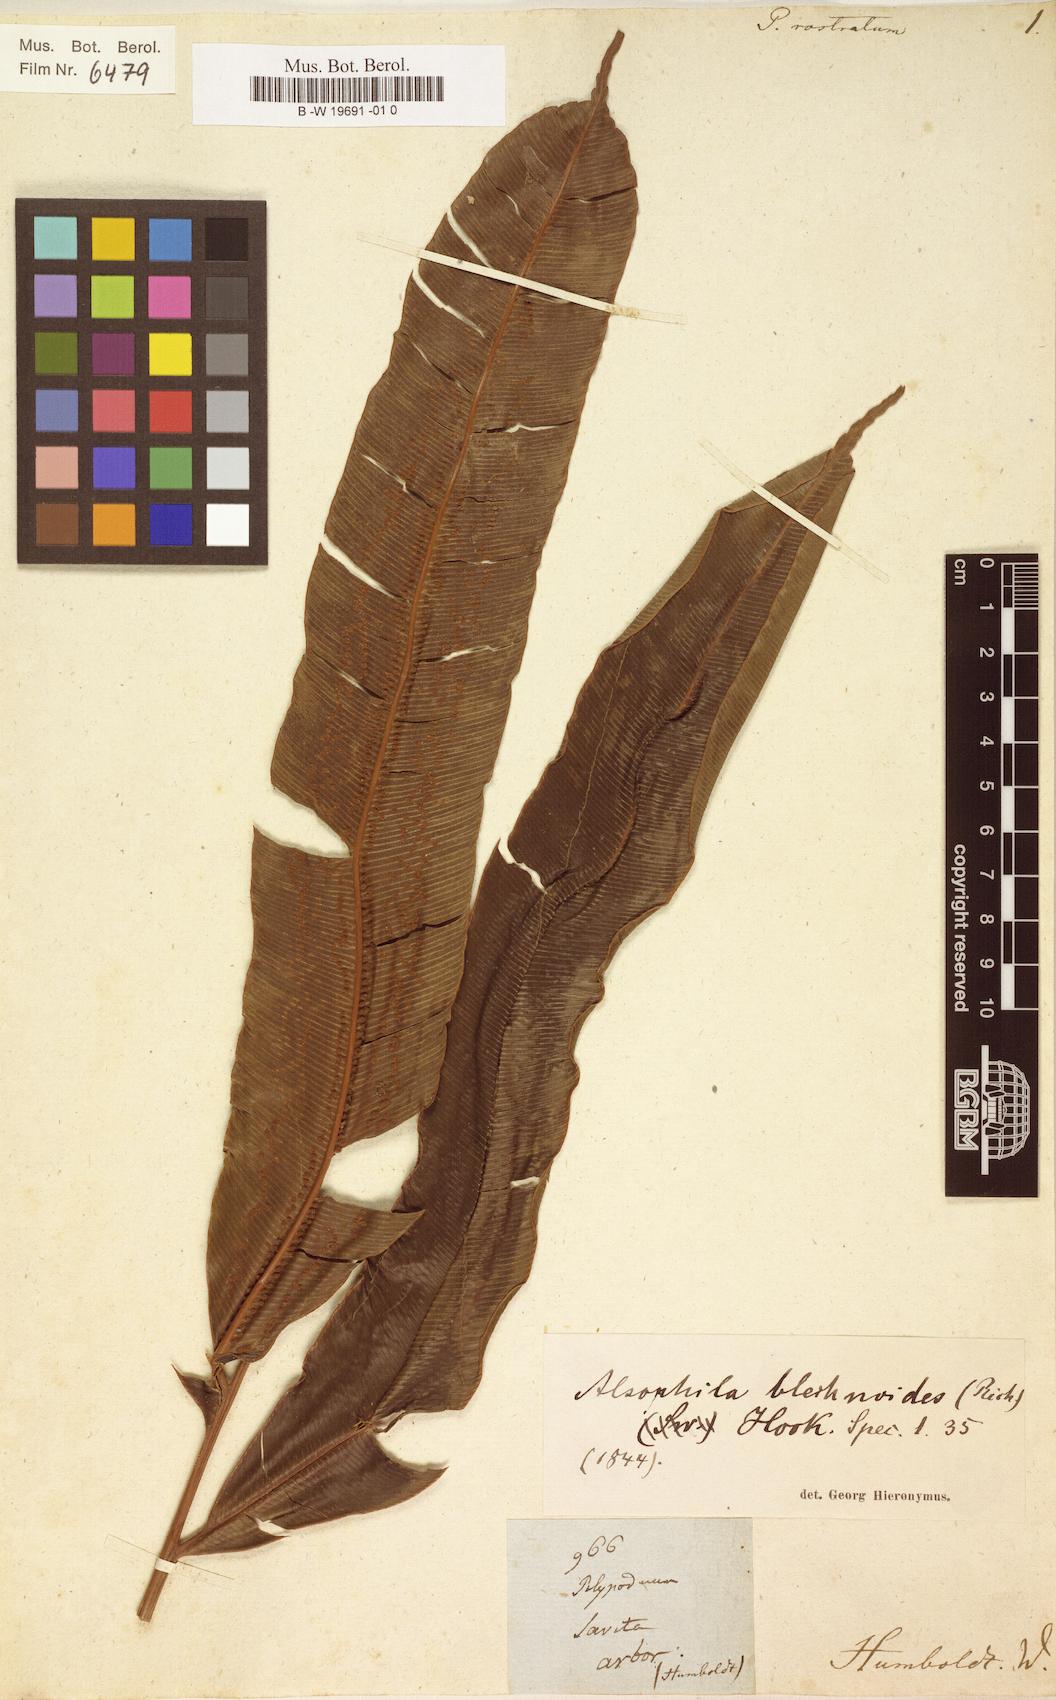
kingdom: Plantae
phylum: Tracheophyta
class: Polypodiopsida
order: Cyatheales
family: Metaxyaceae
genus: Metaxya
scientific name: Metaxya rostrata
